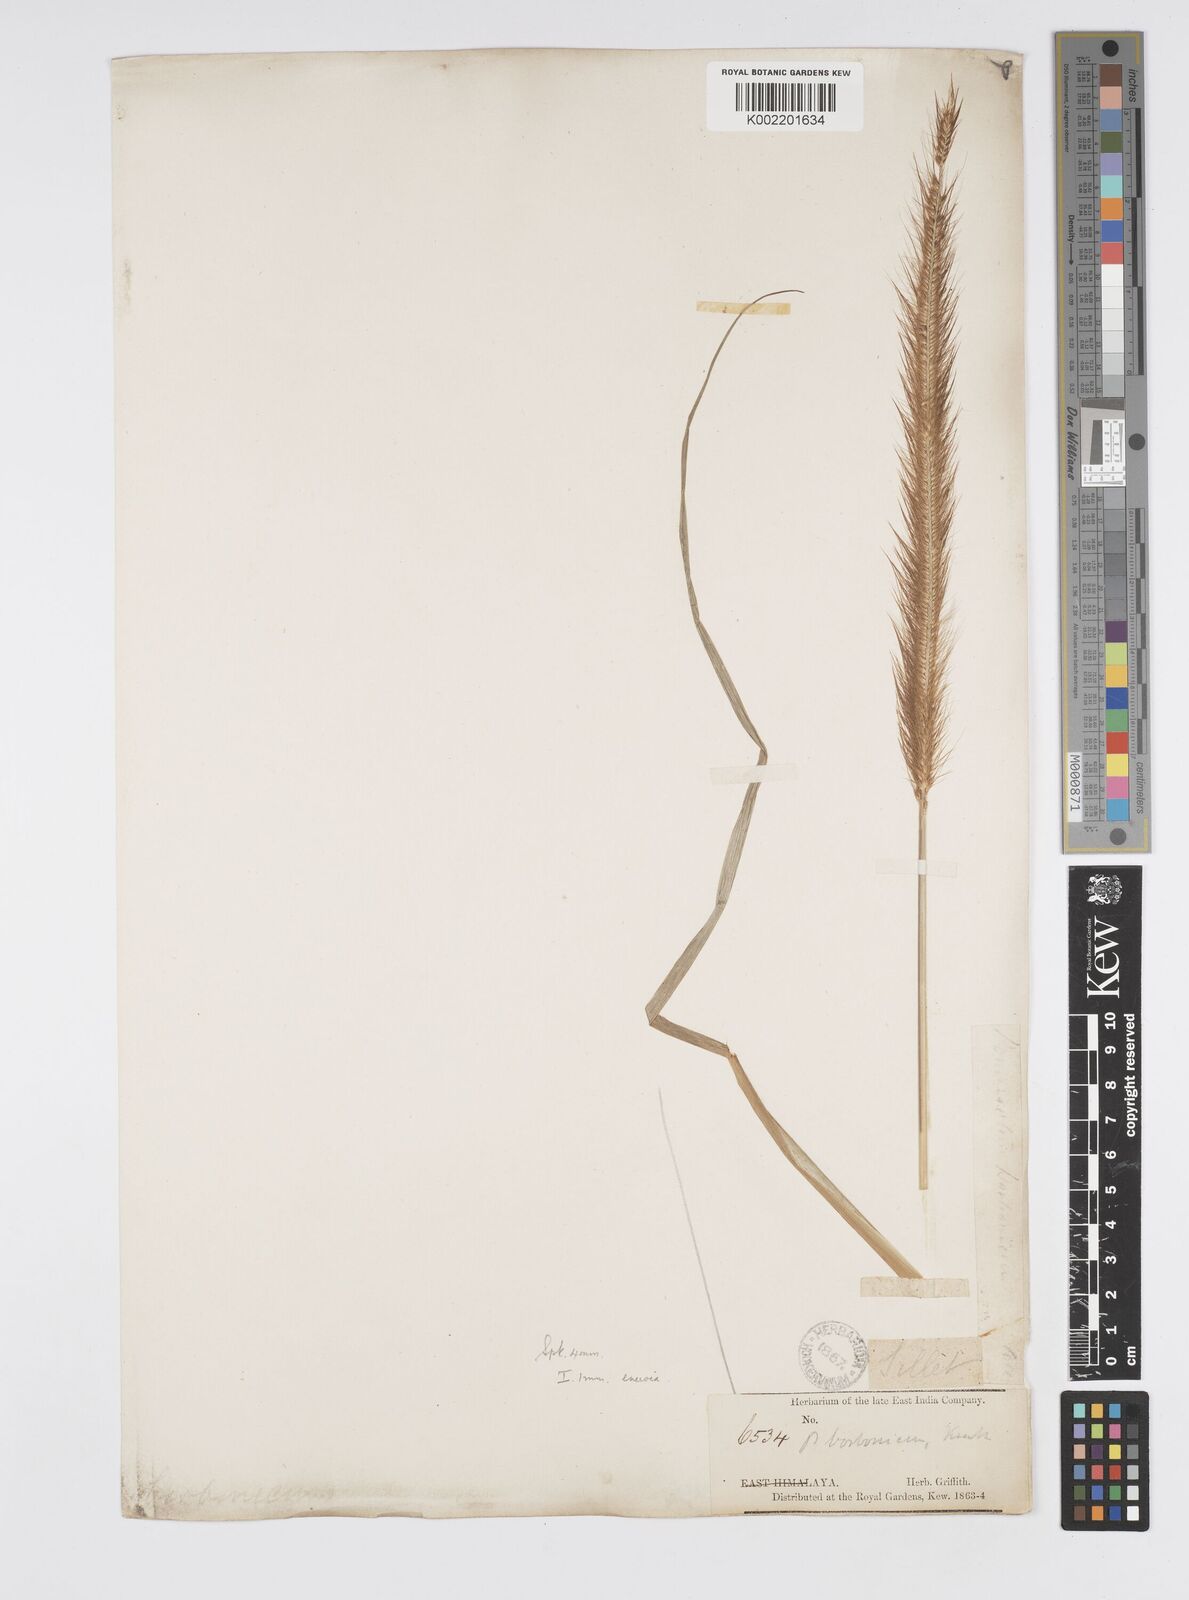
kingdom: Plantae
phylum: Tracheophyta
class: Liliopsida
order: Poales
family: Poaceae
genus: Setaria
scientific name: Setaria parviflora
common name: Knotroot bristle-grass
